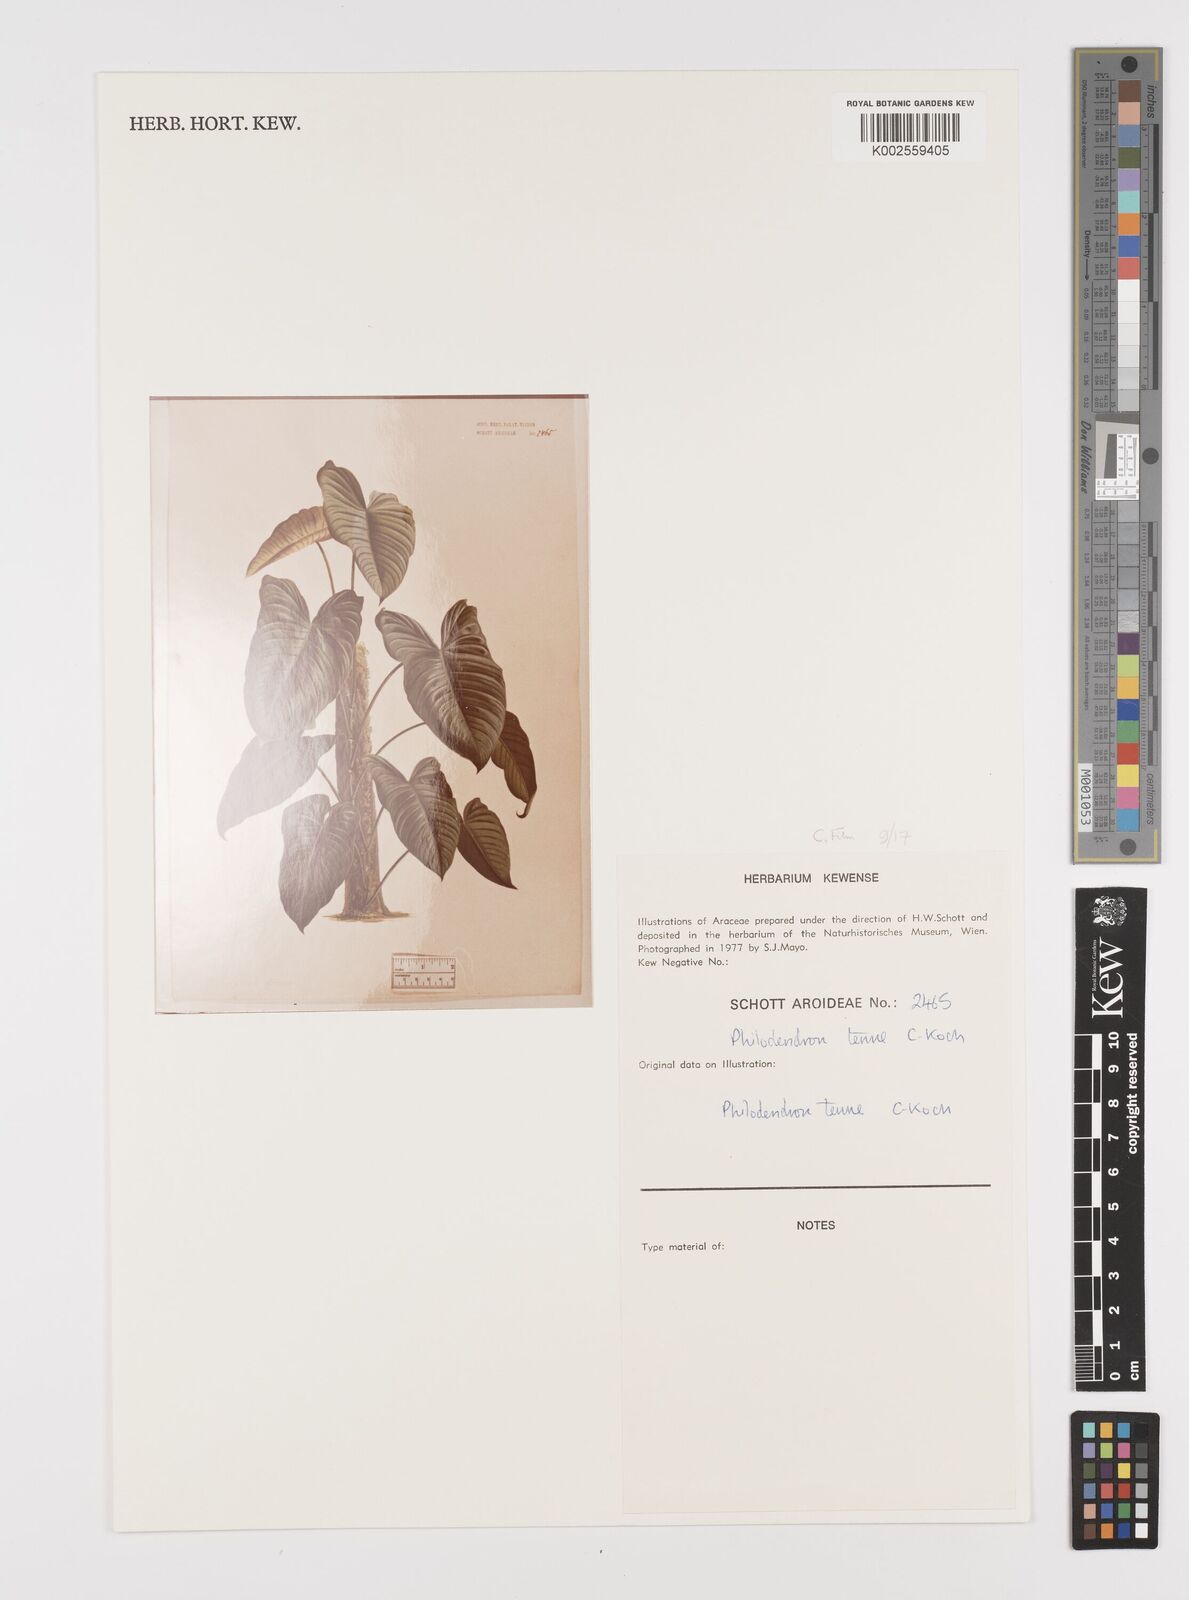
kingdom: Plantae
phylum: Tracheophyta
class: Liliopsida
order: Alismatales
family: Araceae
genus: Philodendron
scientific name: Philodendron tenue
